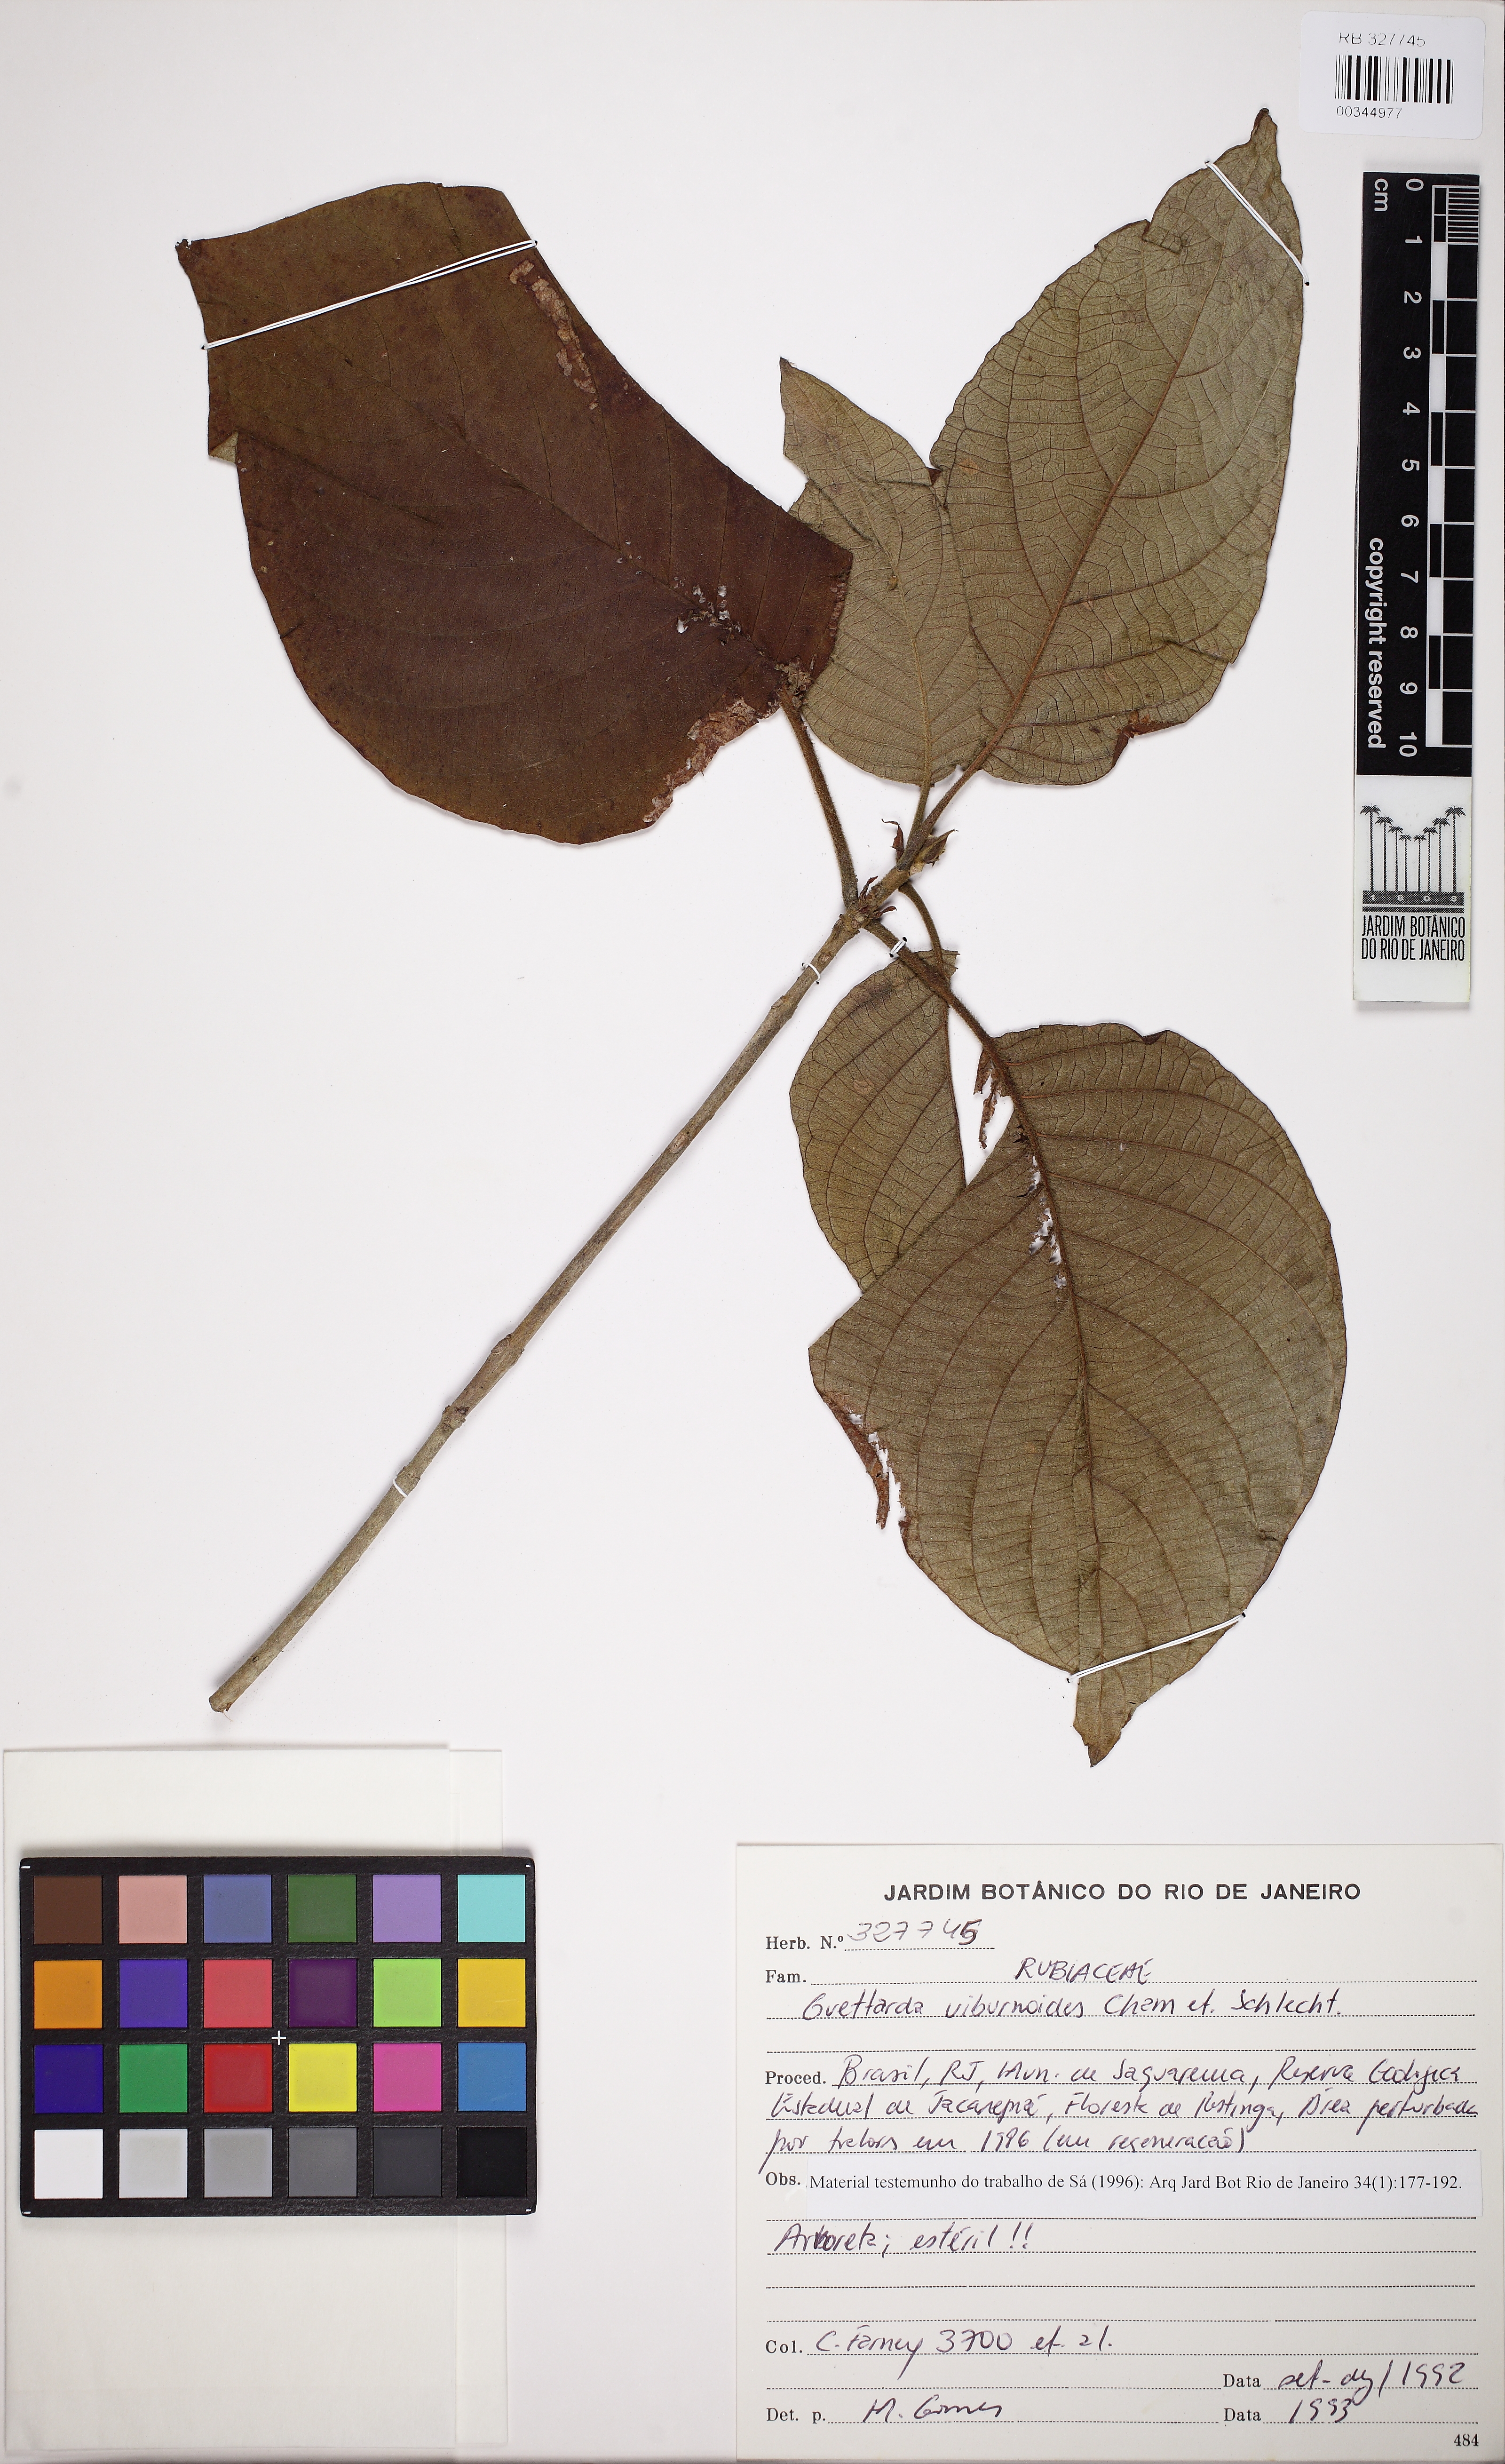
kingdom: Plantae
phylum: Tracheophyta
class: Magnoliopsida
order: Gentianales
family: Rubiaceae
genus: Guettarda
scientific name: Guettarda viburnoides
